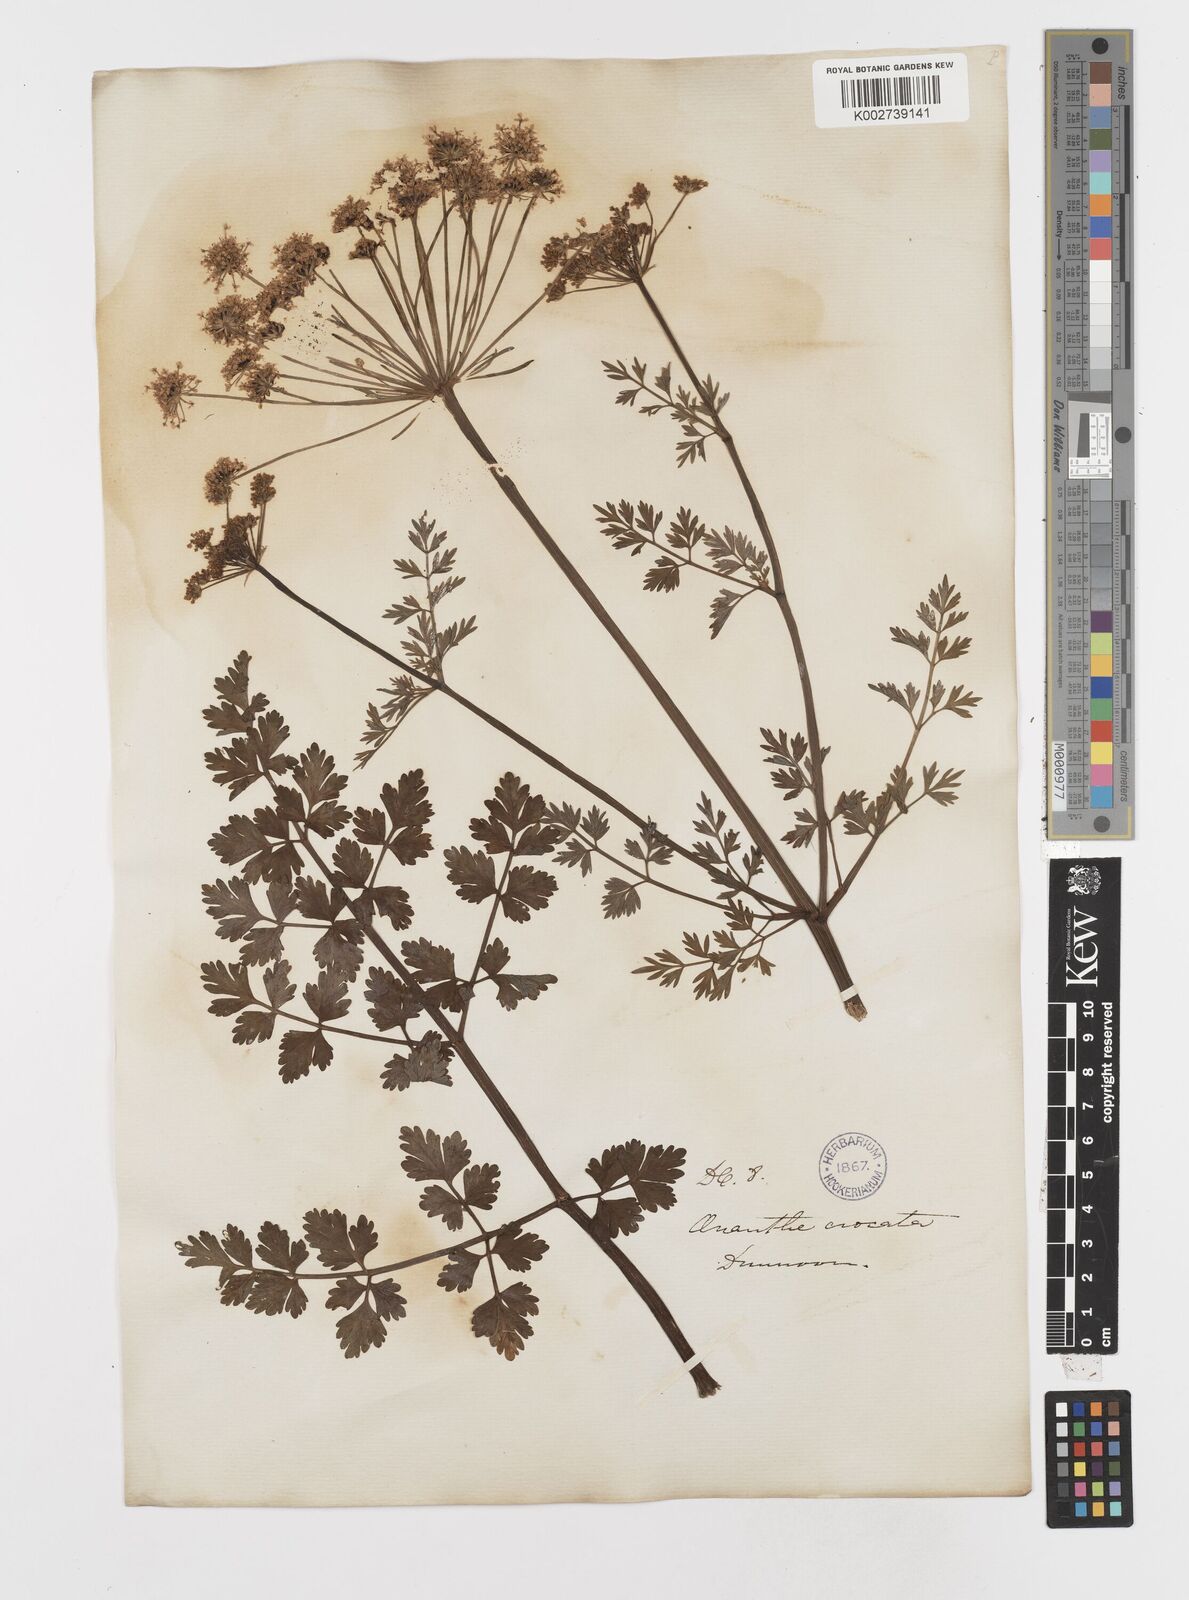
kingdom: Plantae
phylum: Tracheophyta
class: Magnoliopsida
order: Apiales
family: Apiaceae
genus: Oenanthe
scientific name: Oenanthe crocata
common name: Hemlock water-dropwort
